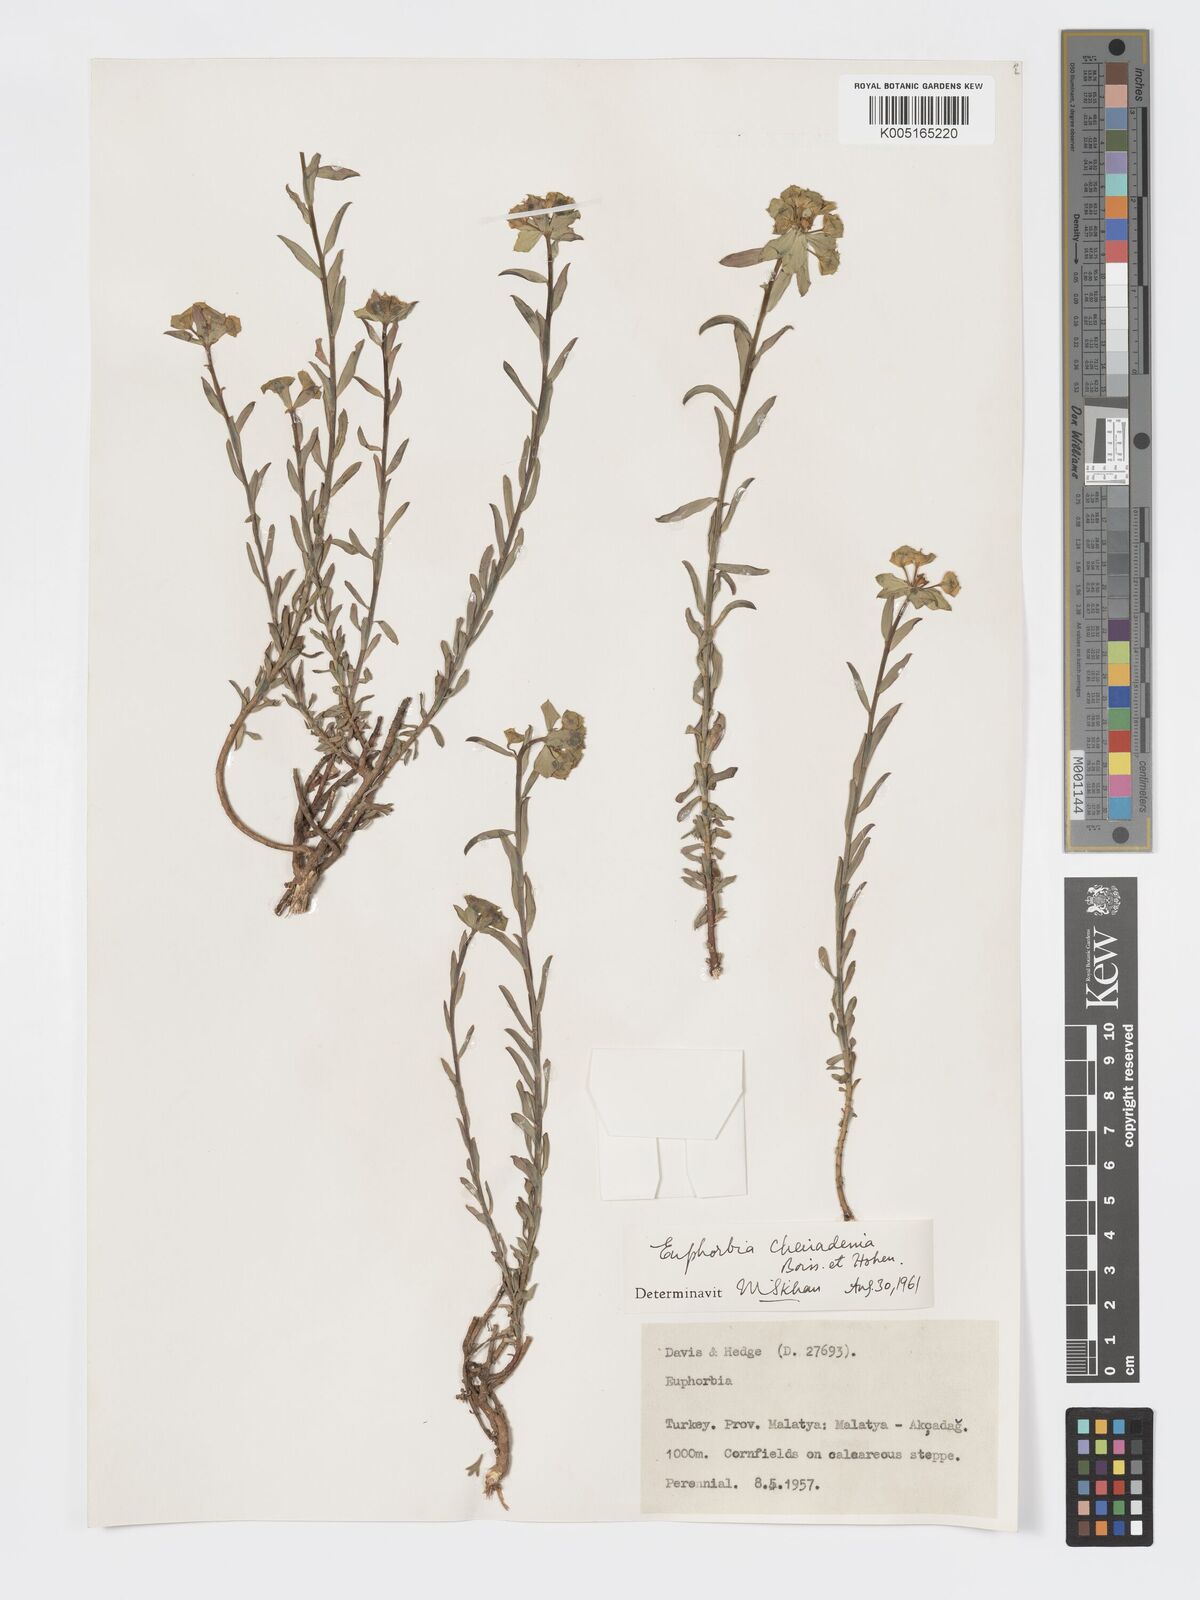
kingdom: Plantae
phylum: Tracheophyta
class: Magnoliopsida
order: Malpighiales
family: Euphorbiaceae
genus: Euphorbia
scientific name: Euphorbia cheiradenia
